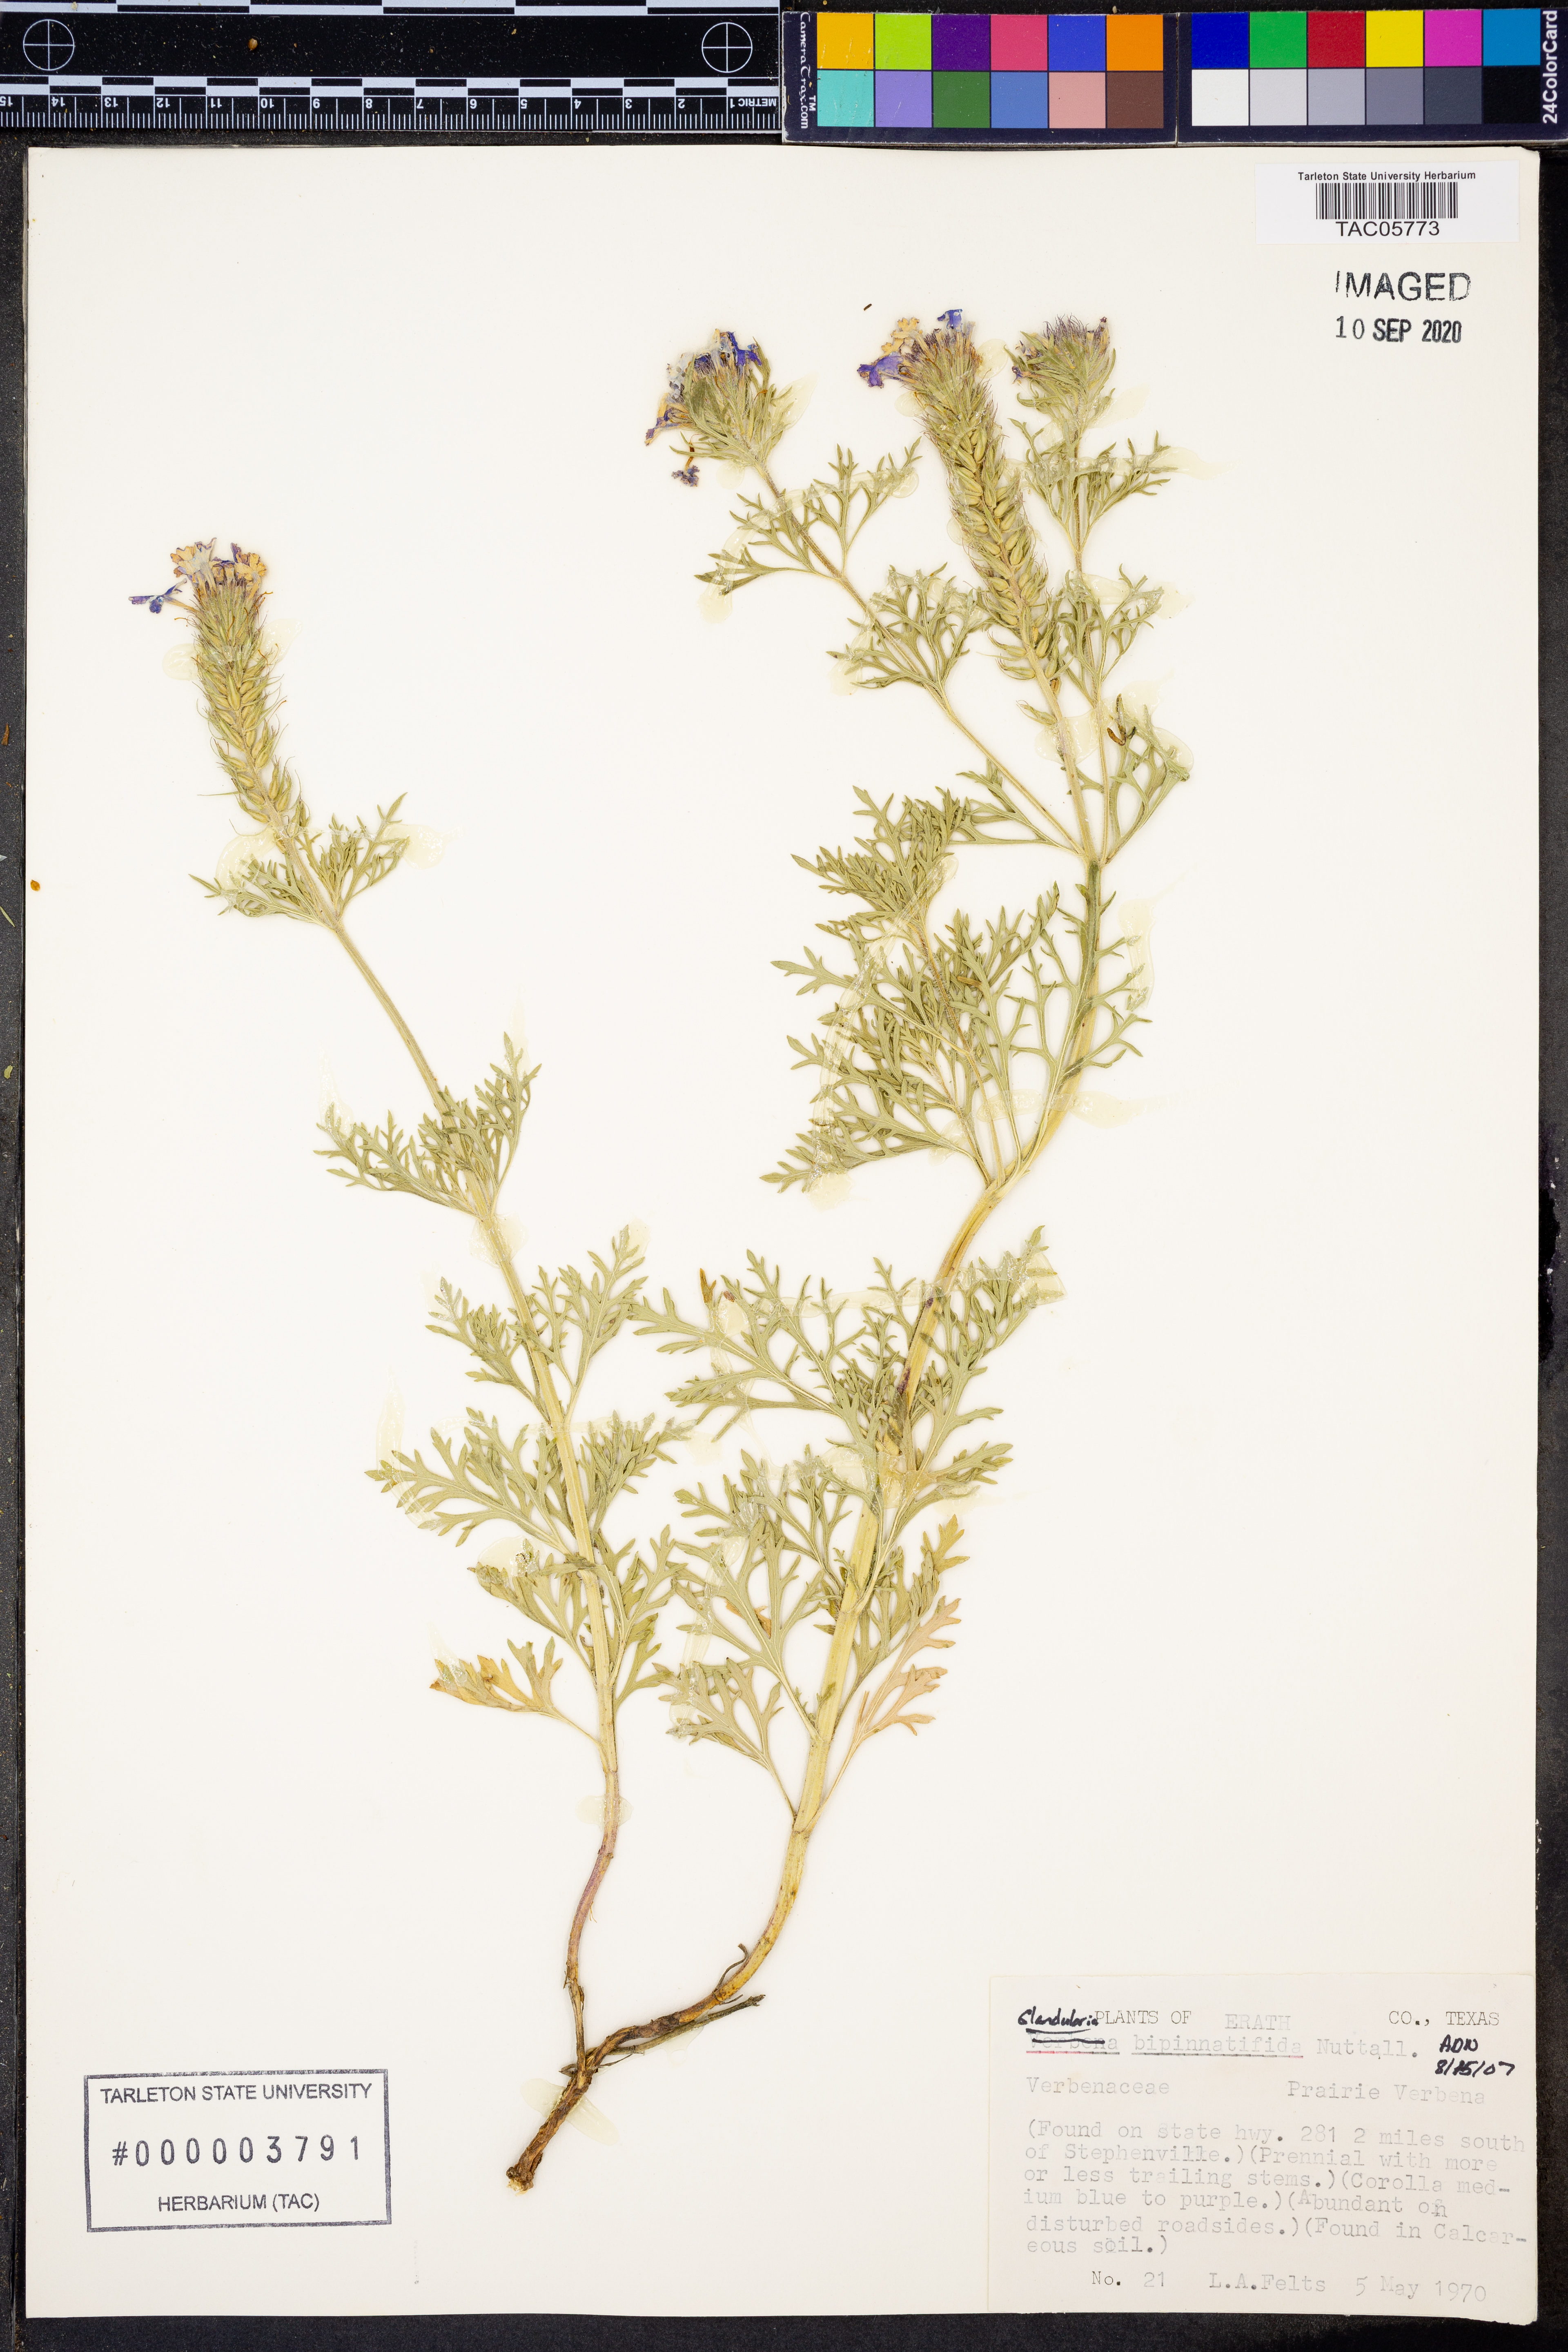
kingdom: Plantae
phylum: Tracheophyta
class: Magnoliopsida
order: Lamiales
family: Verbenaceae
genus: Verbena
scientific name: Verbena bipinnatifida
